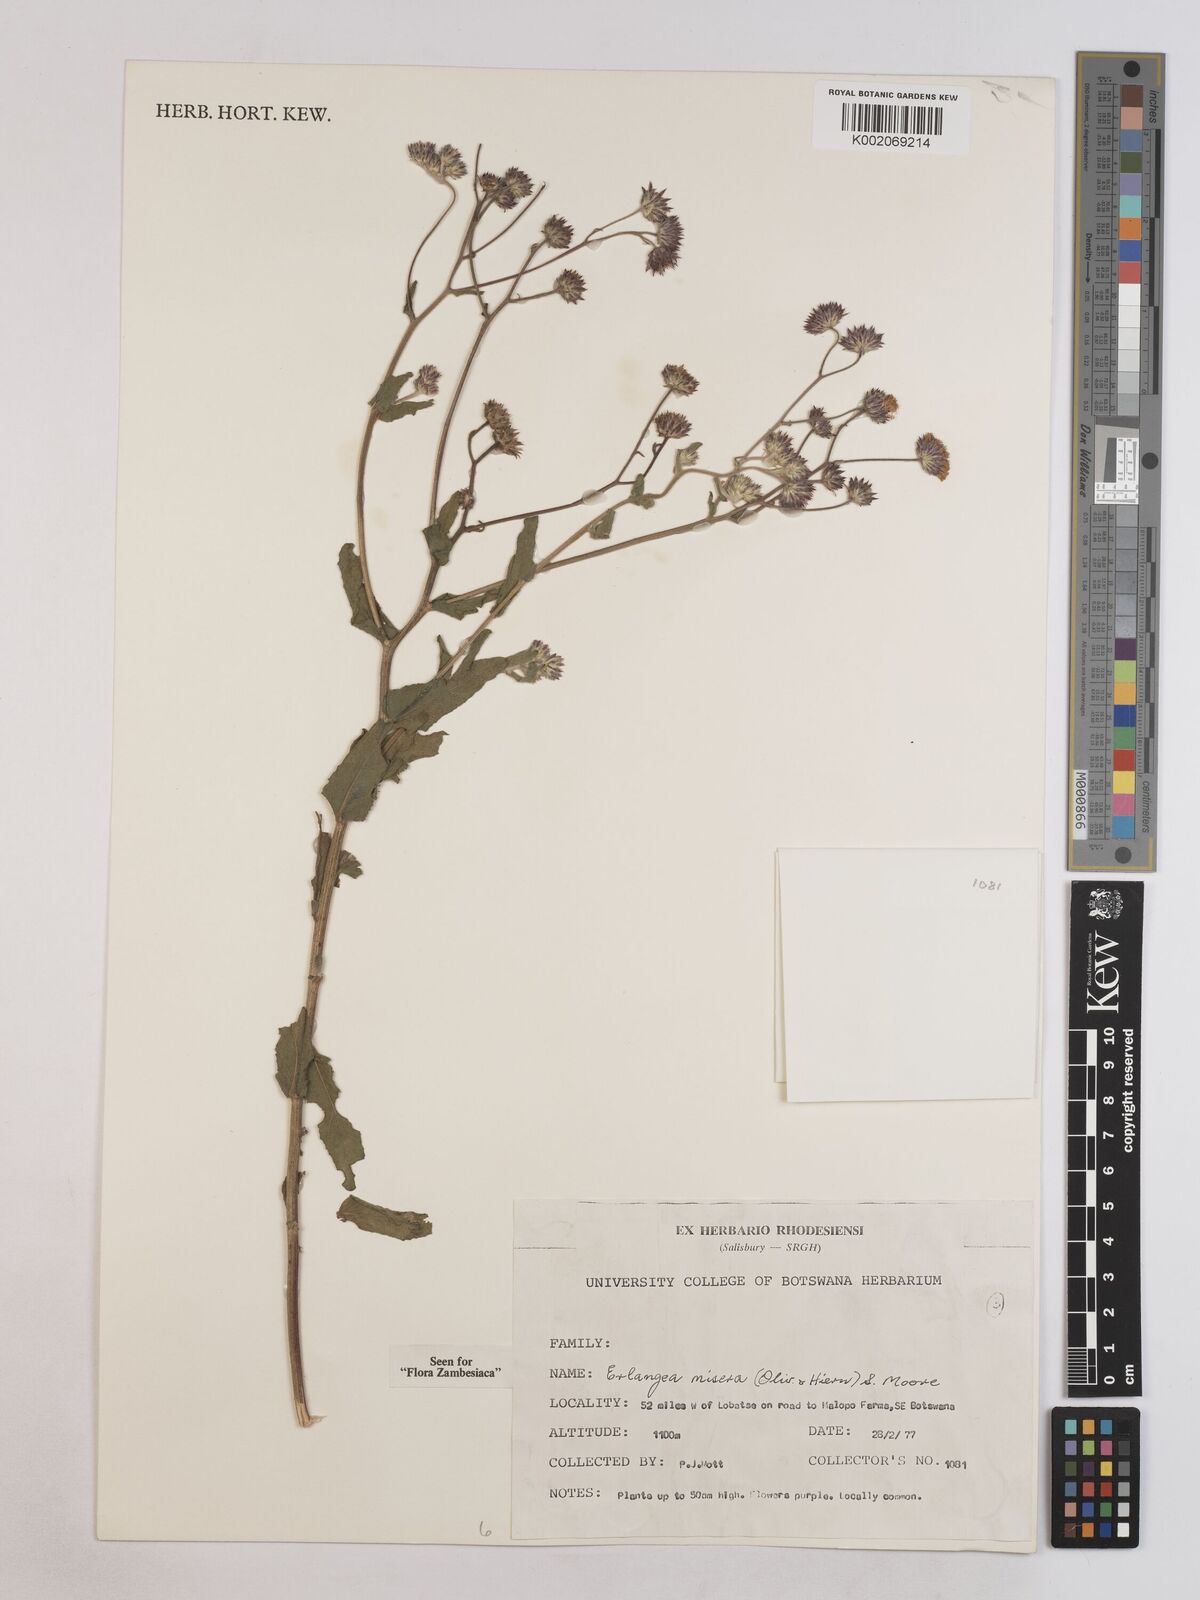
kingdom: Plantae
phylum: Tracheophyta
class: Magnoliopsida
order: Asterales
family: Asteraceae
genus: Erlangea
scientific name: Erlangea misera
